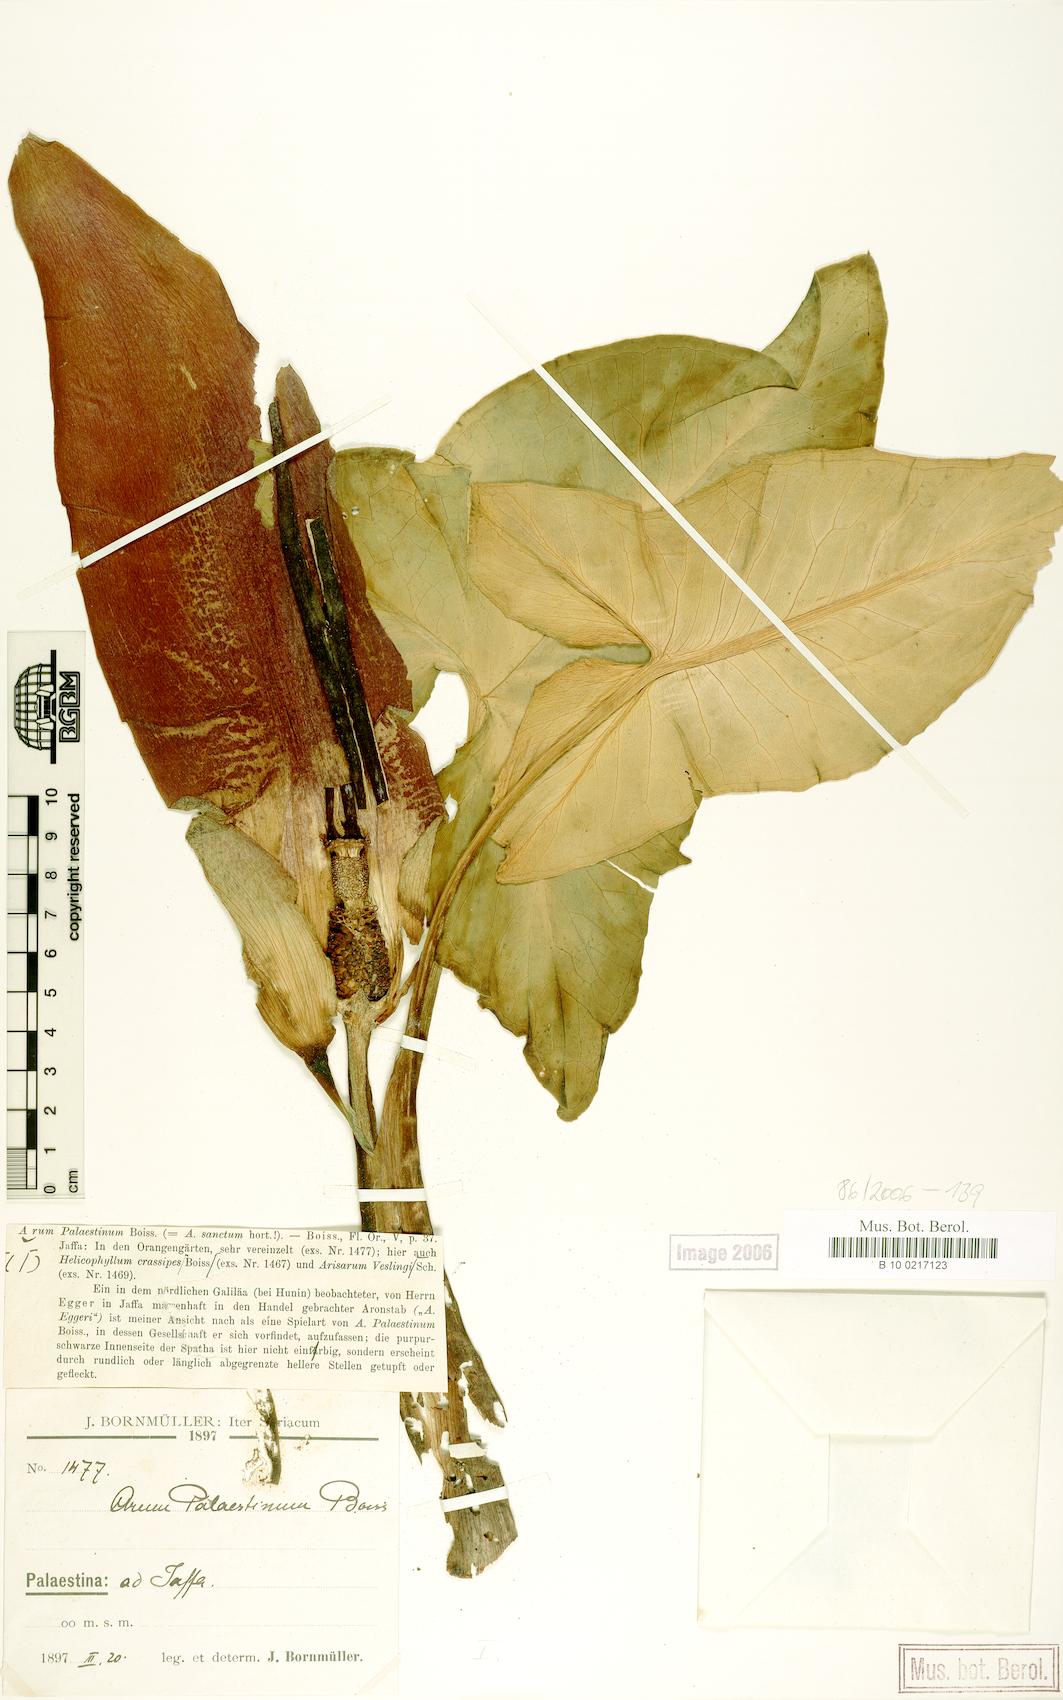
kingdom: Plantae
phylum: Tracheophyta
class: Liliopsida
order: Alismatales
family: Araceae
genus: Arum
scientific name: Arum palaestinum
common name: Solomon's lily
